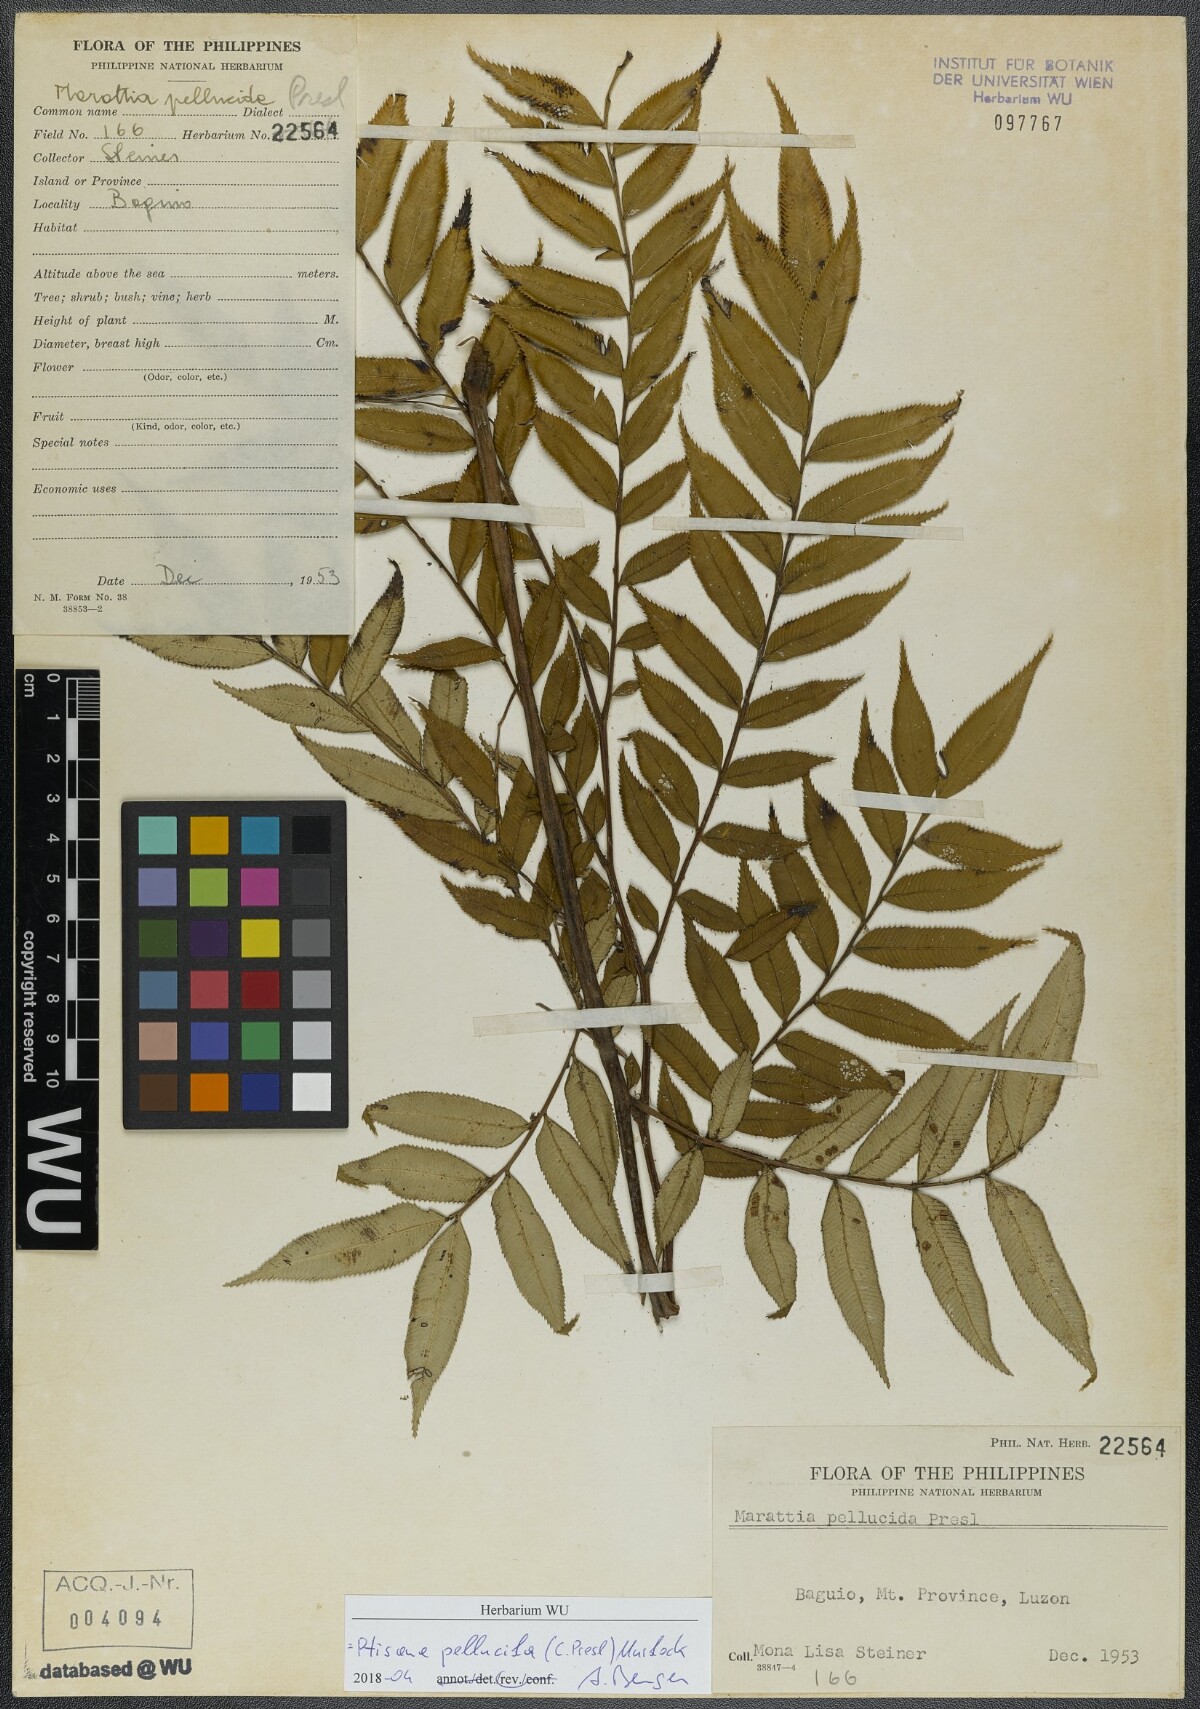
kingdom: Plantae
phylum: Tracheophyta
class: Polypodiopsida
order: Marattiales
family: Marattiaceae
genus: Ptisana
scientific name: Ptisana pellucida
